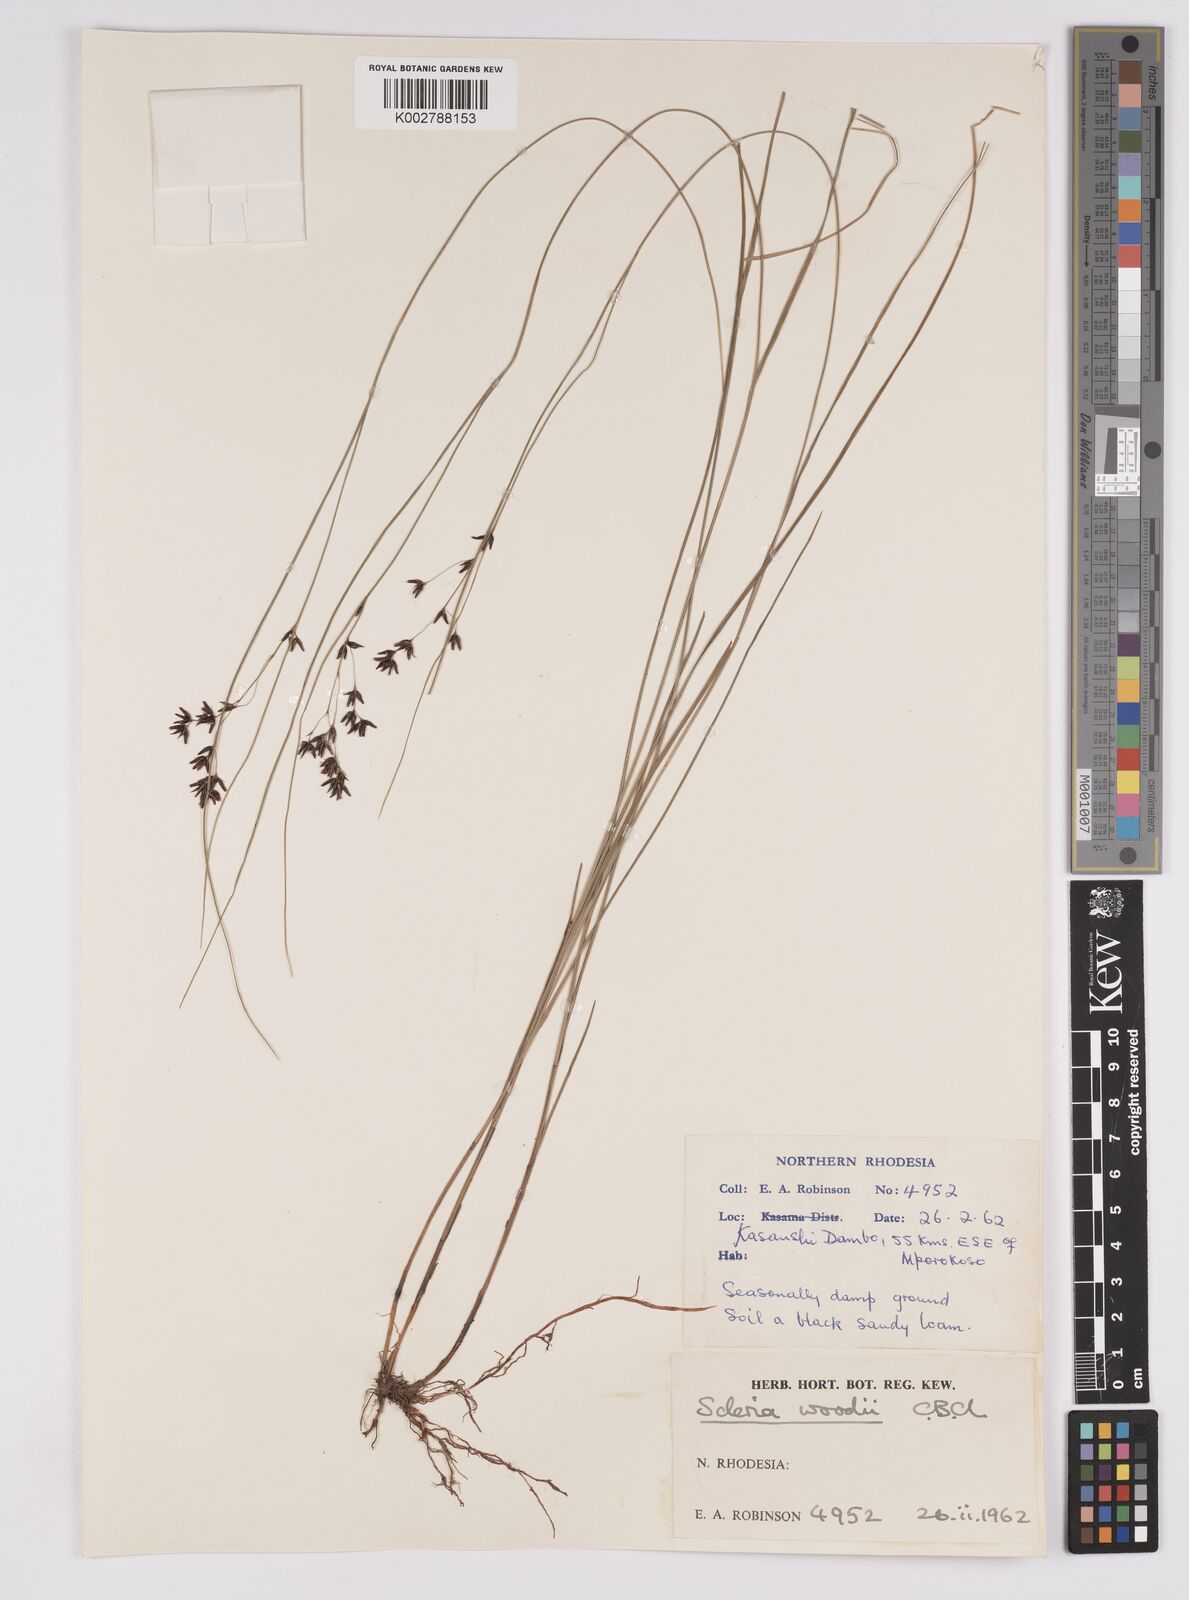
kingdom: Plantae
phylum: Tracheophyta
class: Liliopsida
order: Poales
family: Cyperaceae
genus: Scleria
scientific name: Scleria polyrrhiza
